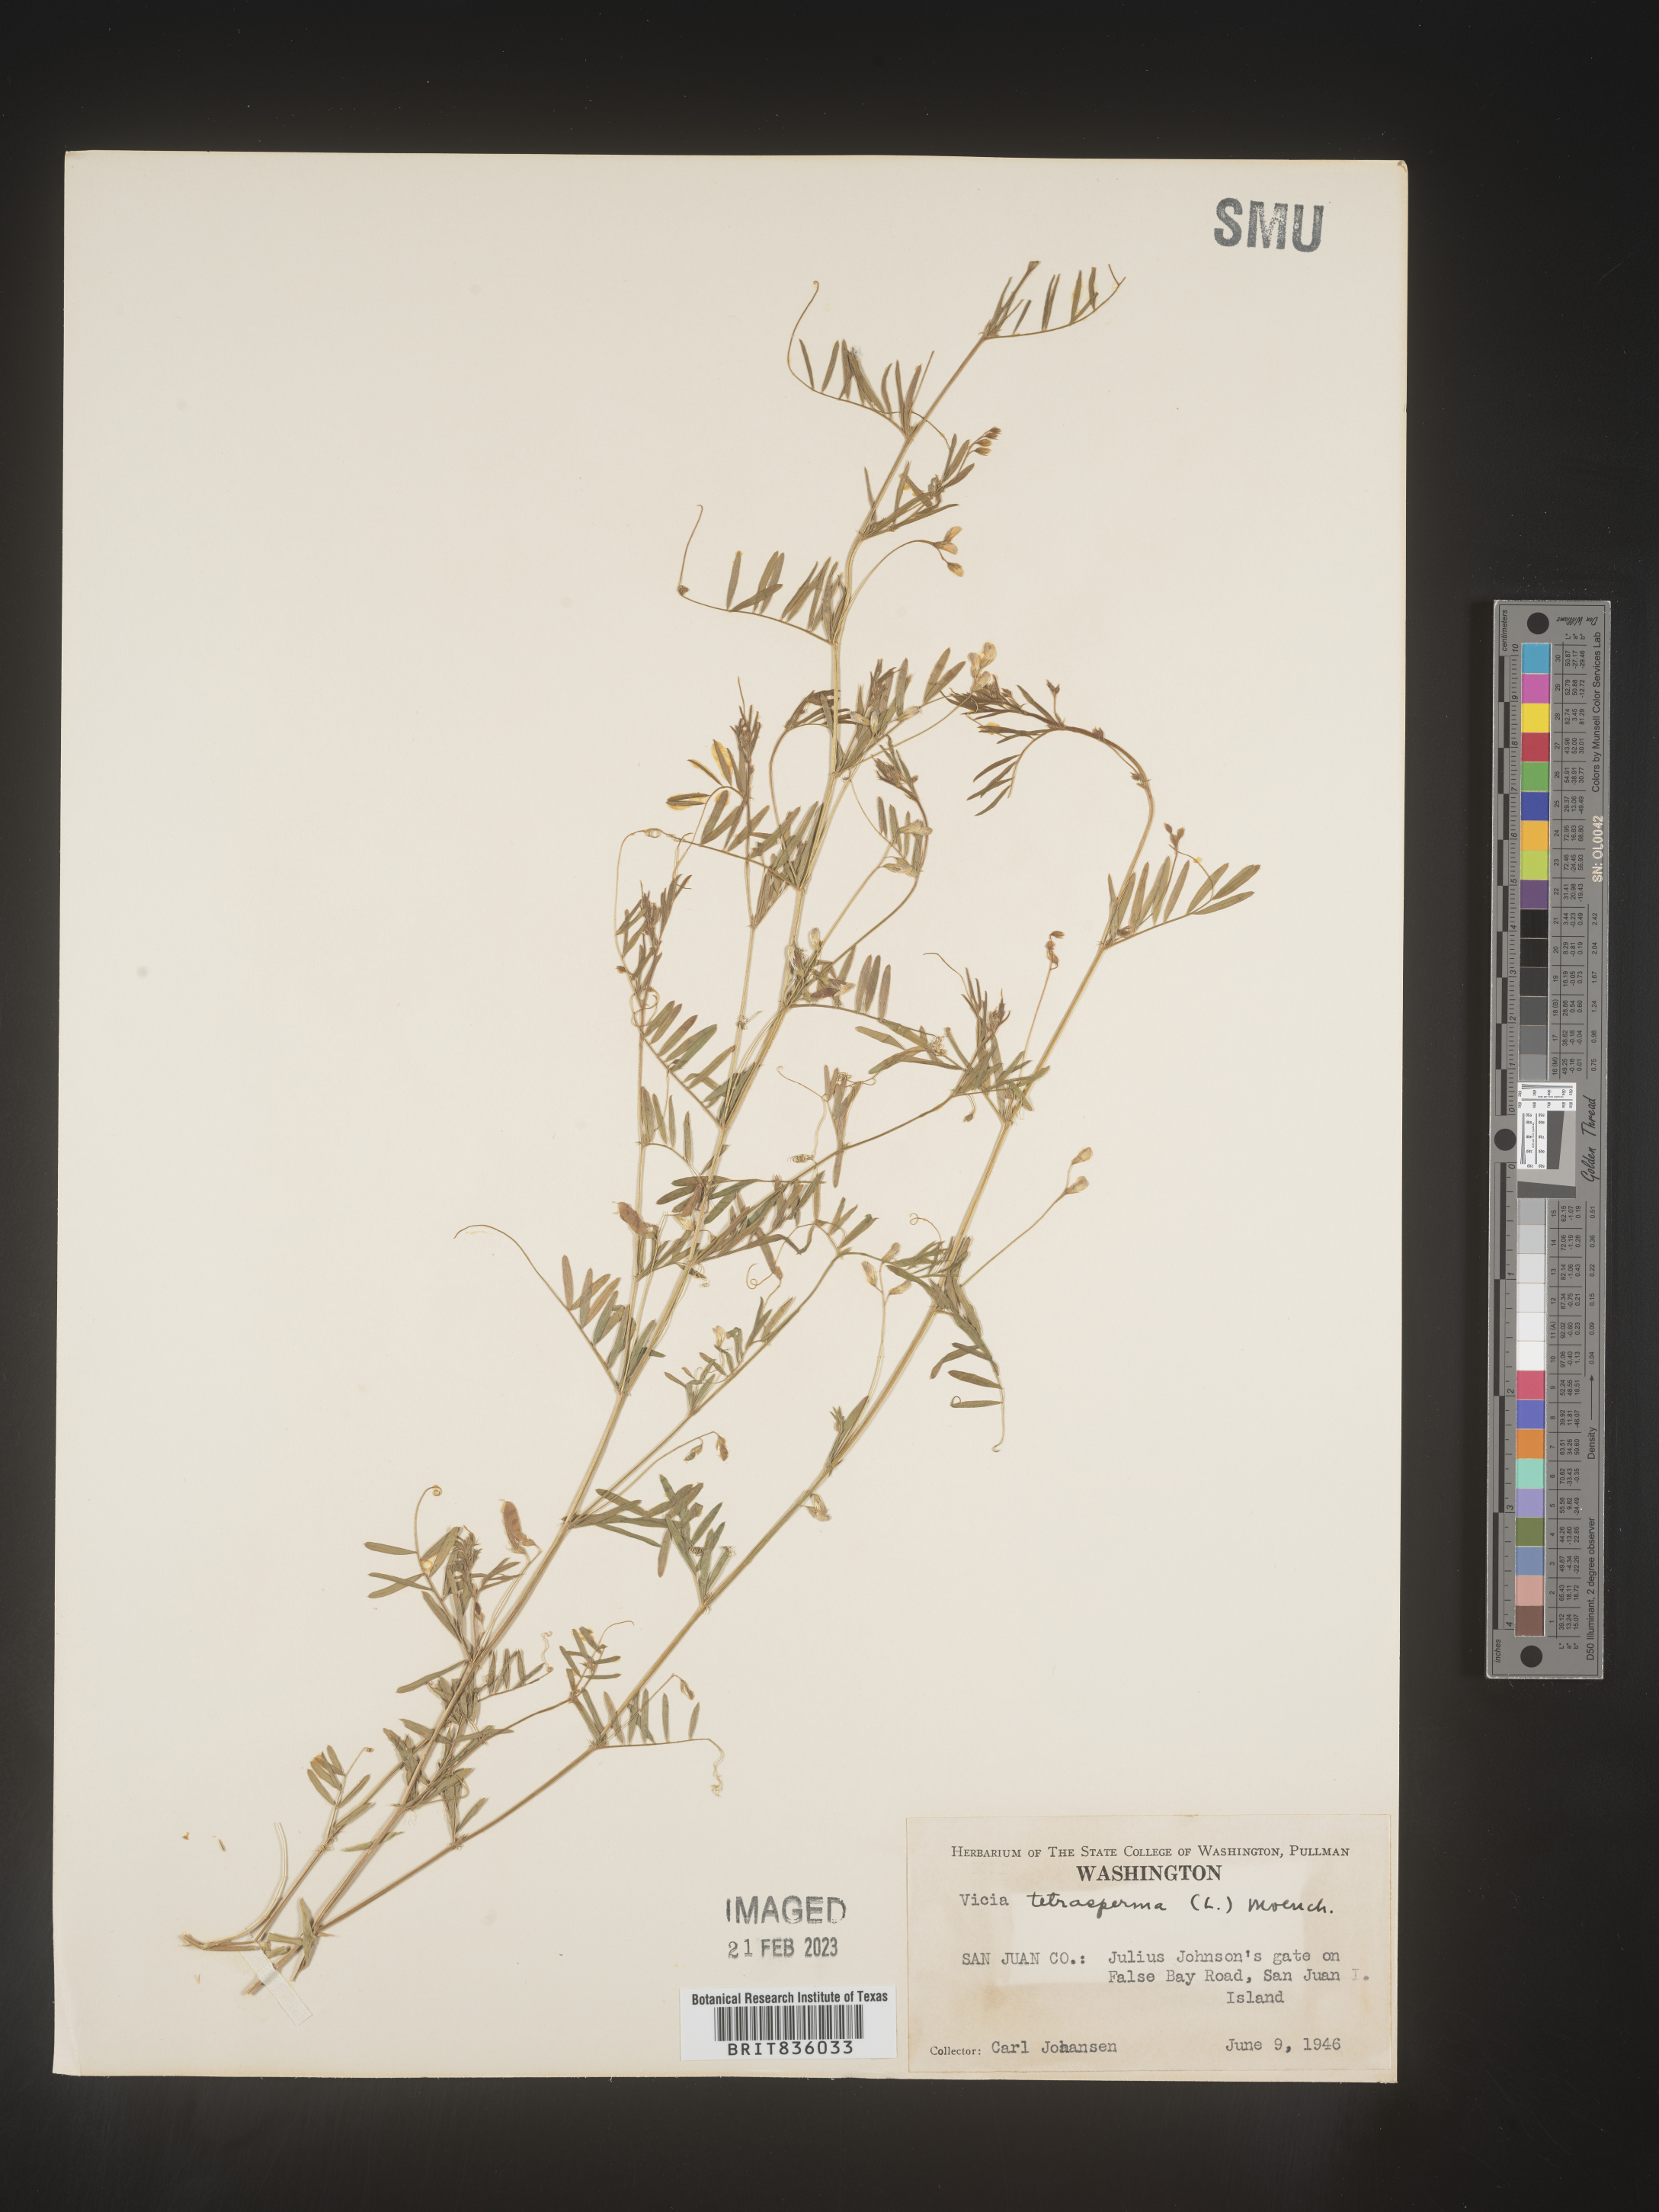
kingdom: Plantae
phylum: Tracheophyta
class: Magnoliopsida
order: Fabales
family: Fabaceae
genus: Vicia
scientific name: Vicia tetrasperma
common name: Smooth tare
